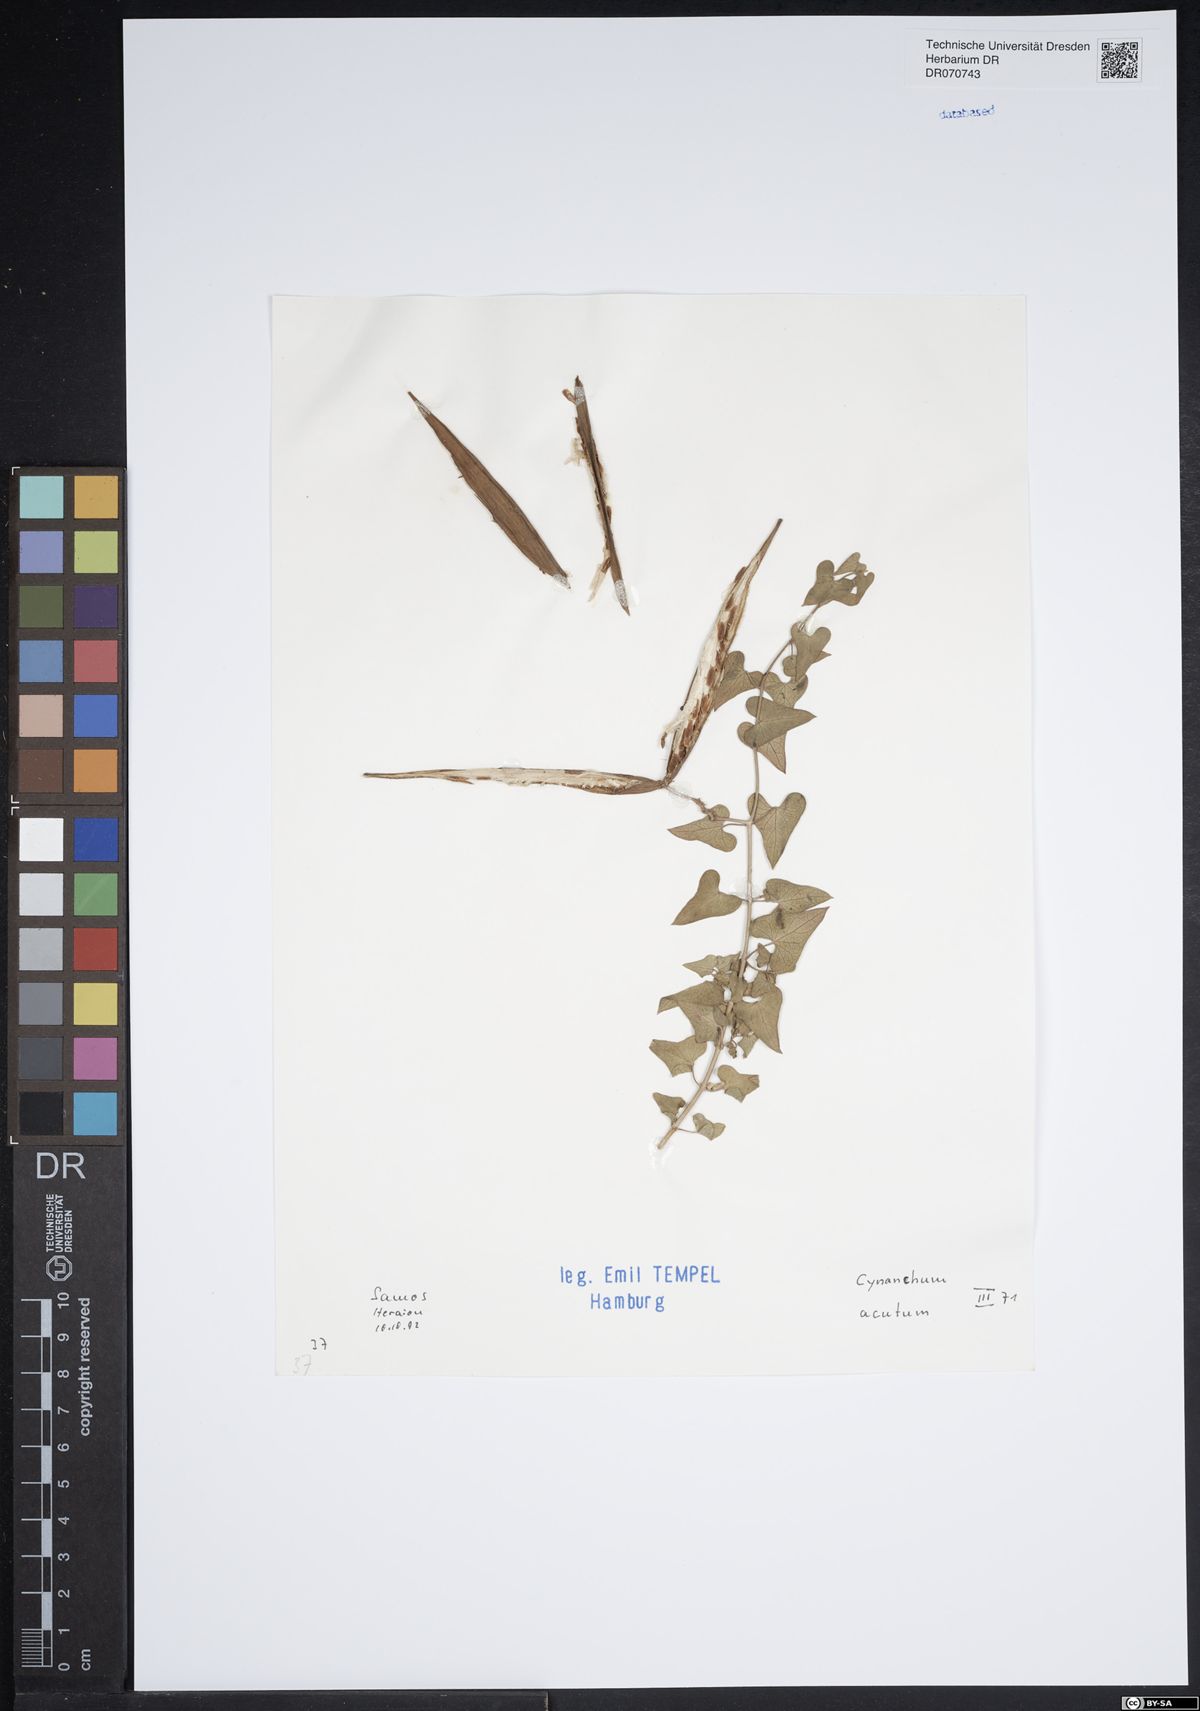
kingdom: Plantae
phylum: Tracheophyta
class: Magnoliopsida
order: Gentianales
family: Apocynaceae
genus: Cynanchum
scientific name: Cynanchum acutum
